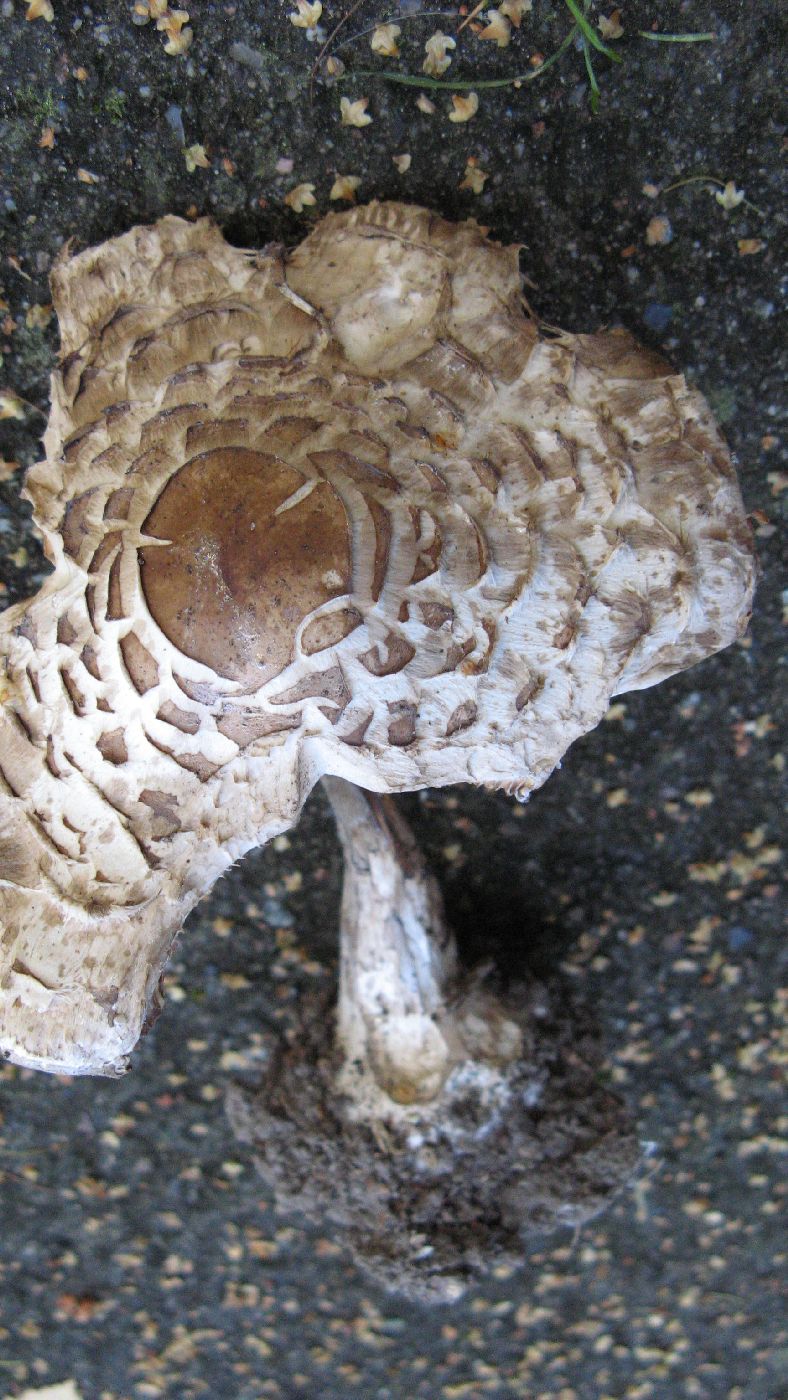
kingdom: Fungi
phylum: Basidiomycota
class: Agaricomycetes
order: Agaricales
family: Agaricaceae
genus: Chlorophyllum
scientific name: Chlorophyllum rhacodes
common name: ægte rabarberhat
